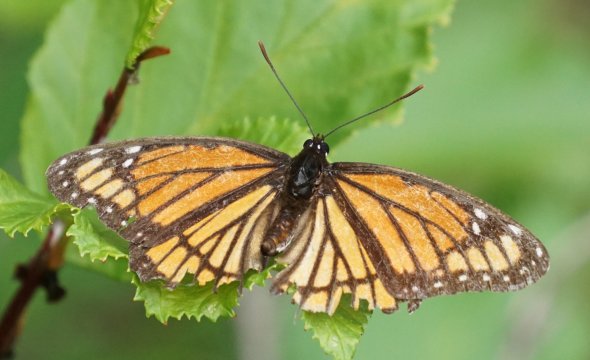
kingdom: Animalia
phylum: Arthropoda
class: Insecta
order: Lepidoptera
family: Nymphalidae
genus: Limenitis
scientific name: Limenitis archippus
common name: Viceroy
